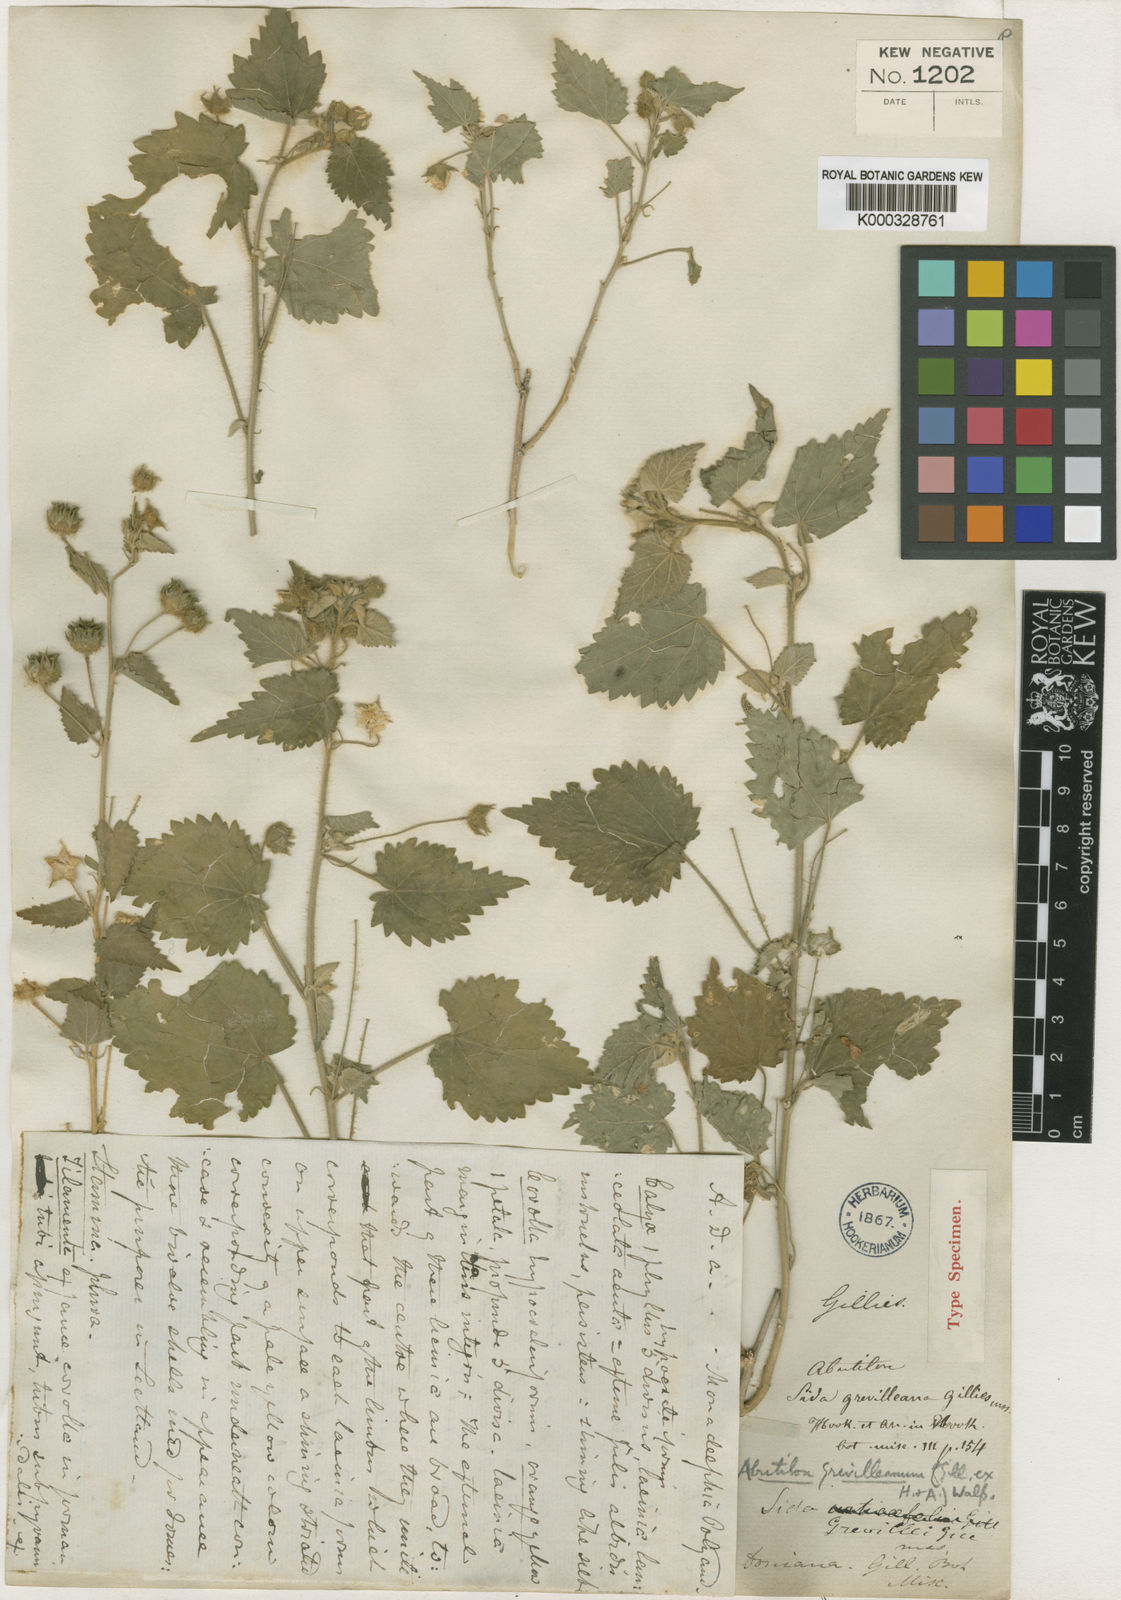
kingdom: Plantae
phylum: Tracheophyta
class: Magnoliopsida
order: Malvales
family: Malvaceae
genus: Pseudabutilon
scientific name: Pseudabutilon virgatum
